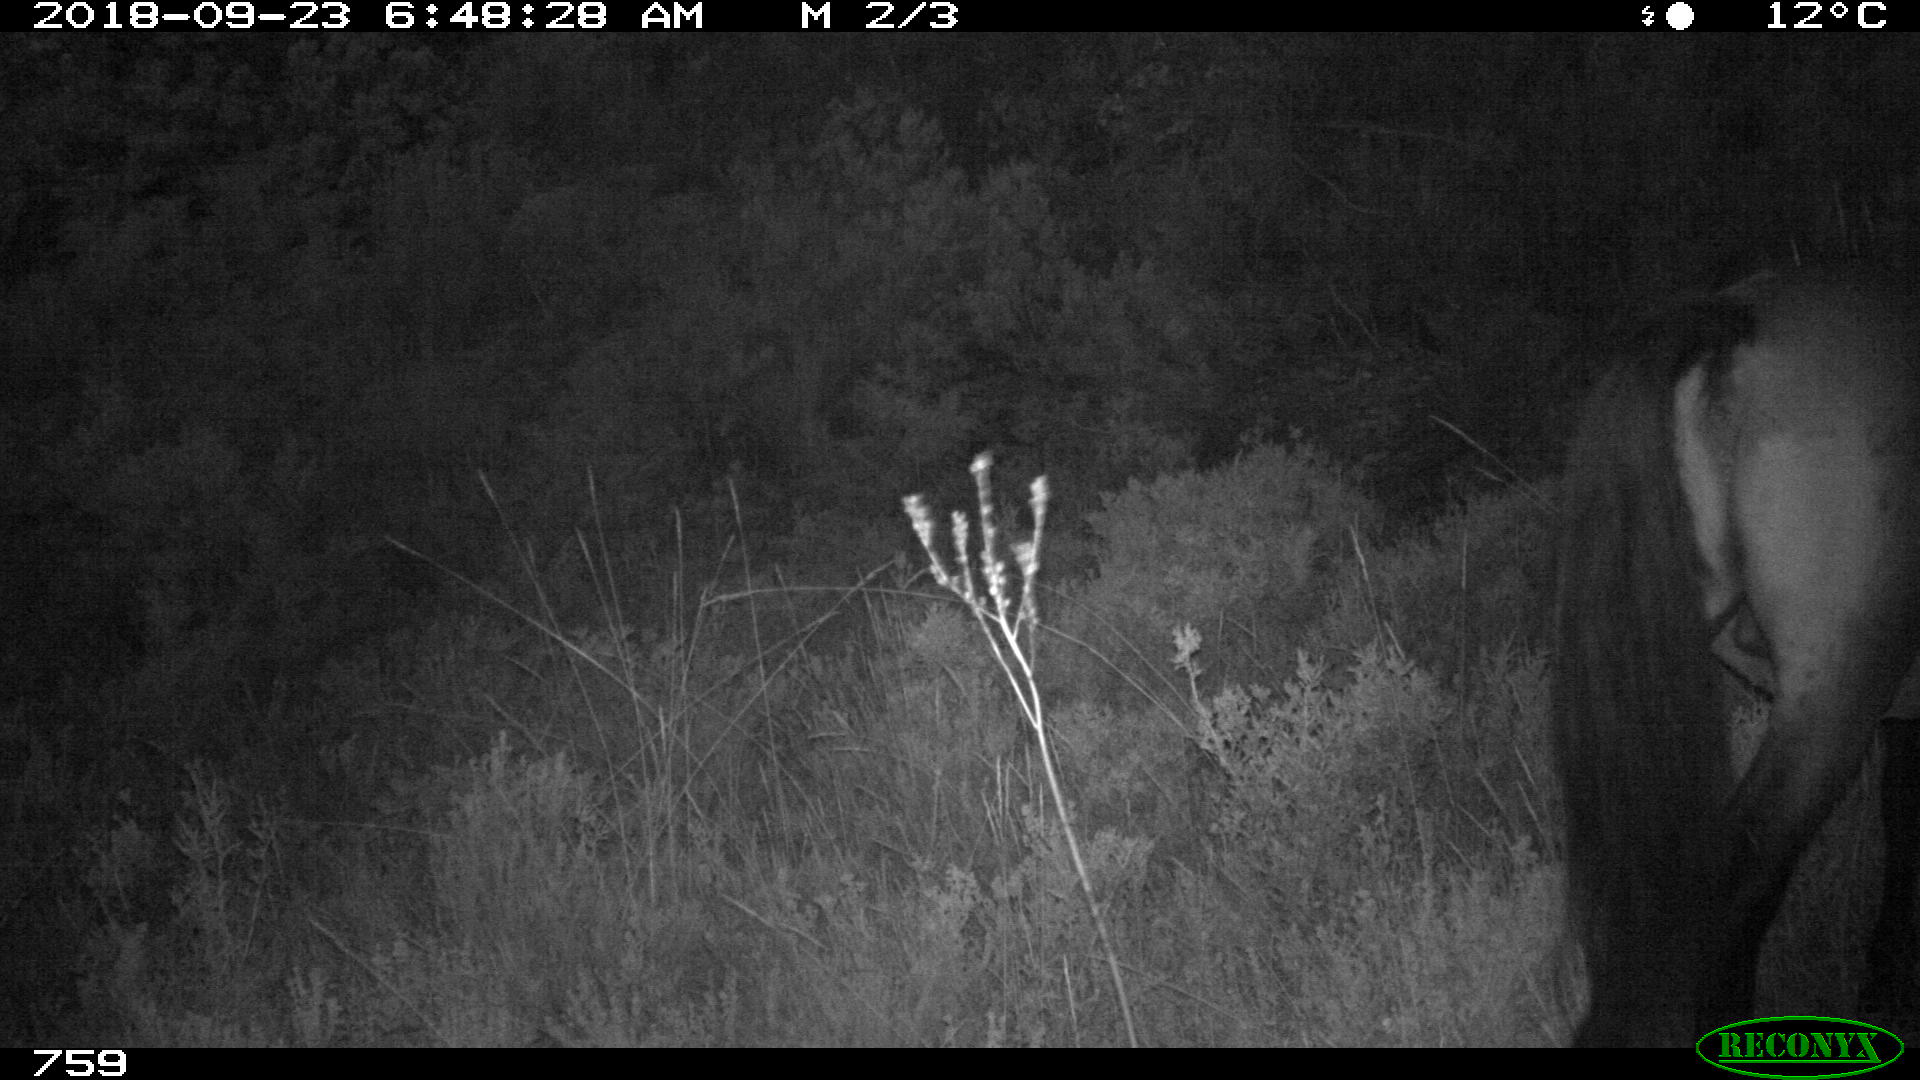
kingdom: Animalia
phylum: Chordata
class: Mammalia
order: Perissodactyla
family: Equidae
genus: Equus
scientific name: Equus caballus
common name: Horse
